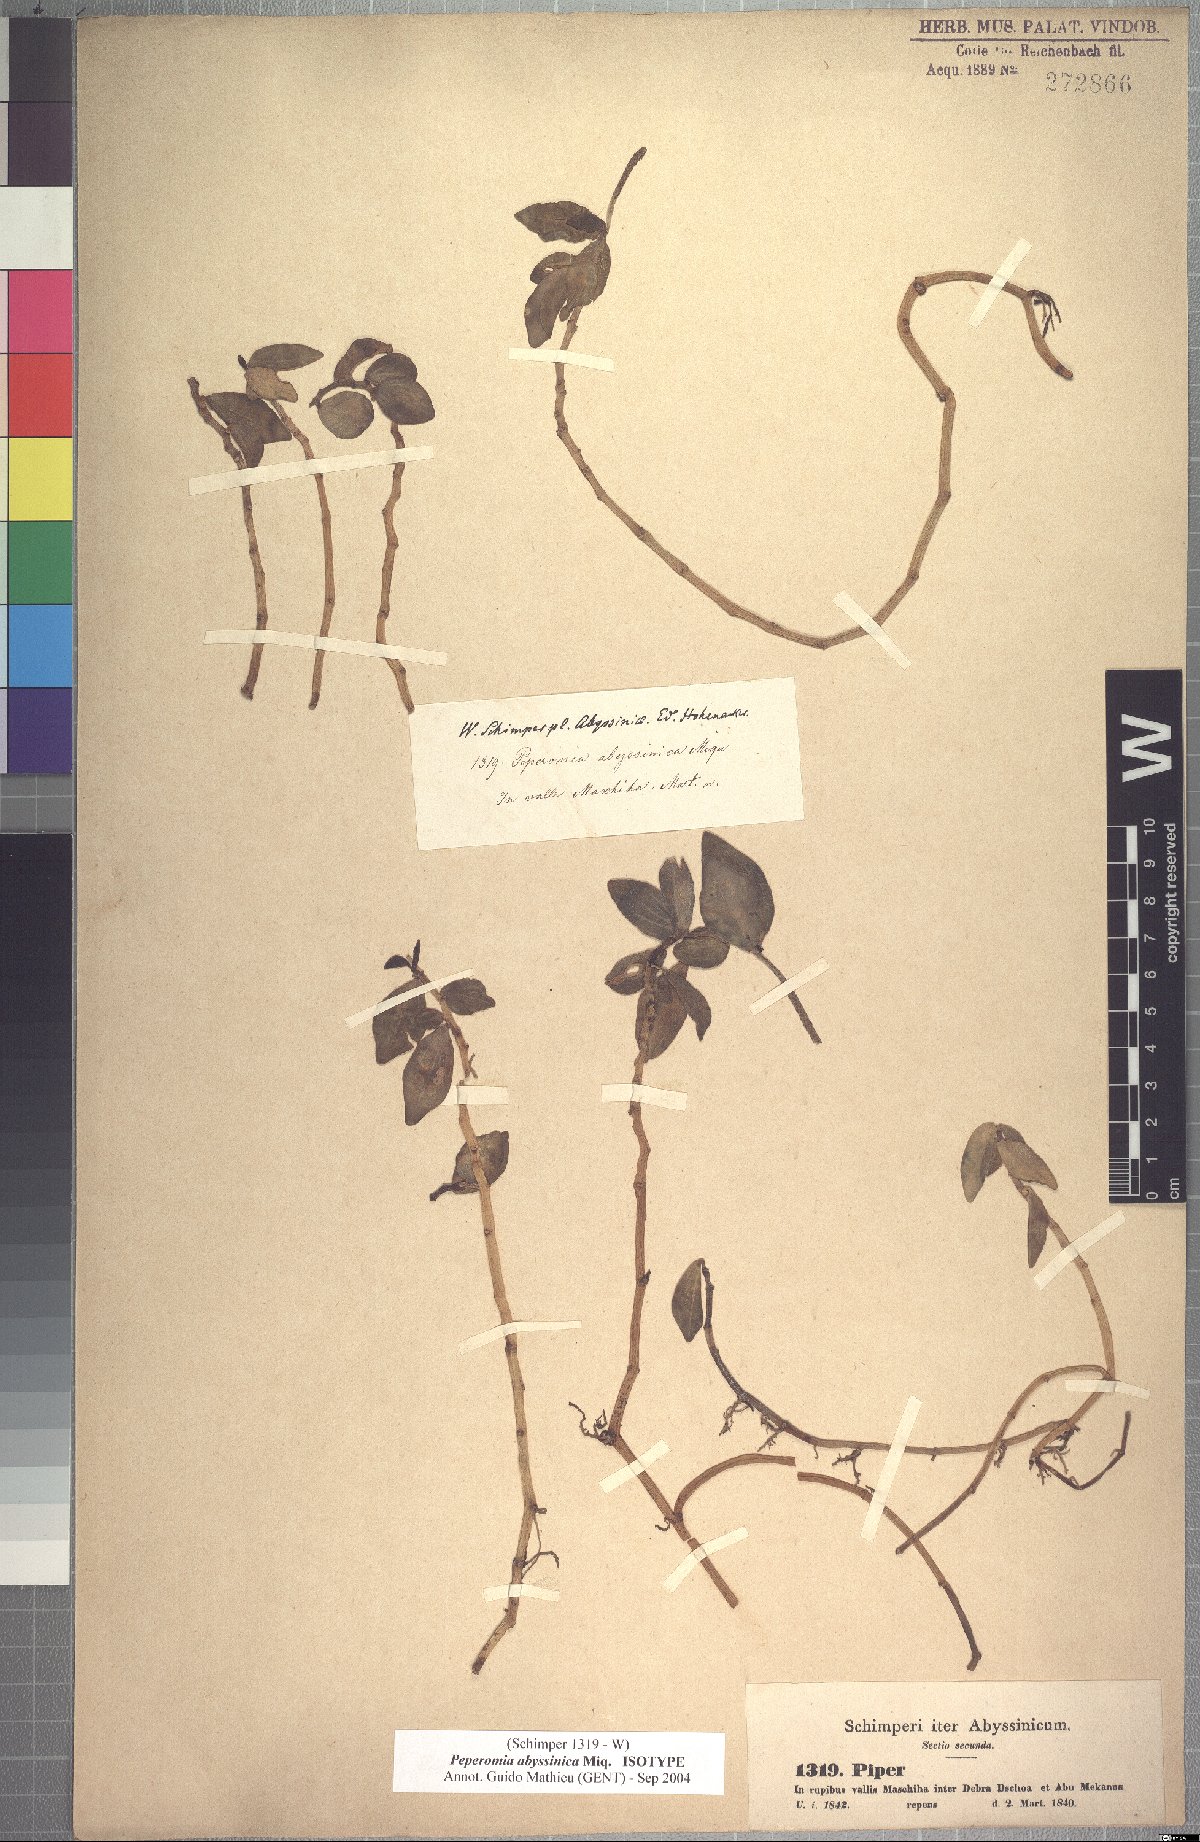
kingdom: Plantae
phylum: Tracheophyta
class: Magnoliopsida
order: Piperales
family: Piperaceae
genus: Peperomia
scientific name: Peperomia abyssinica
